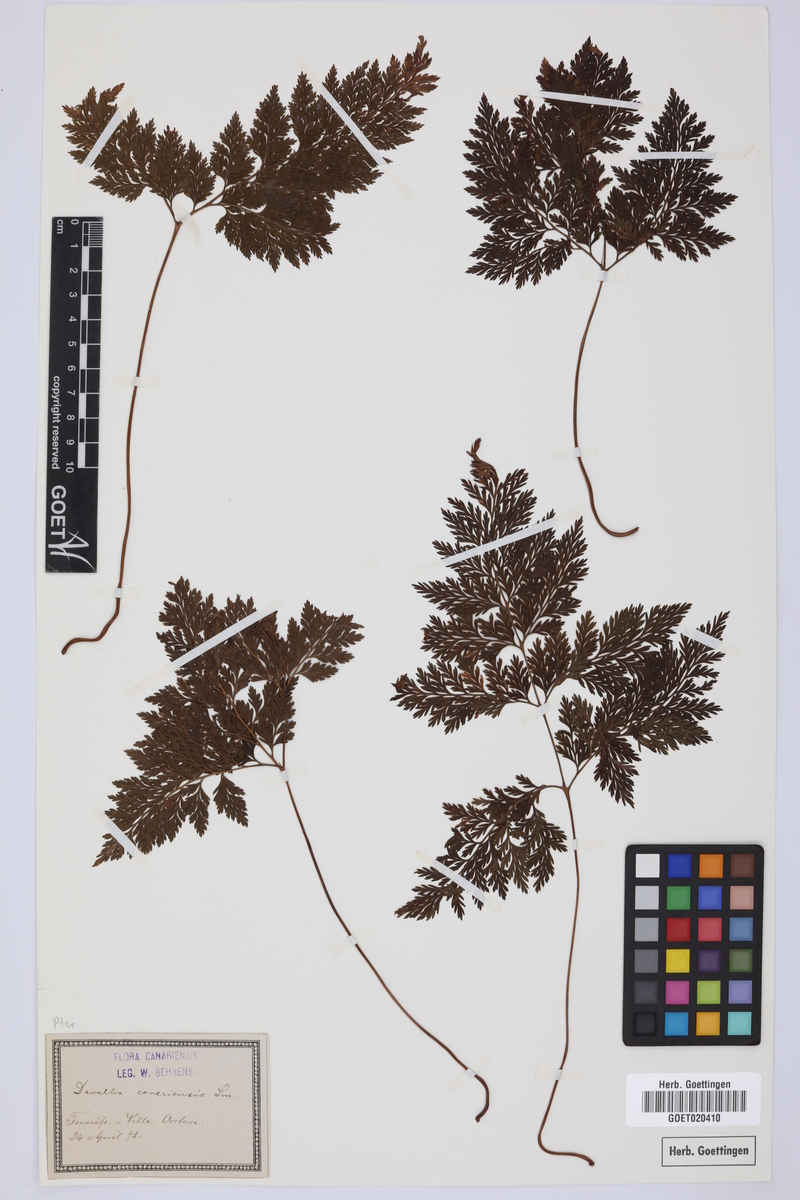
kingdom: Plantae
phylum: Tracheophyta
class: Polypodiopsida
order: Polypodiales
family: Davalliaceae
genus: Davallia
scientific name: Davallia canariensis
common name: Hare's-foot fern
